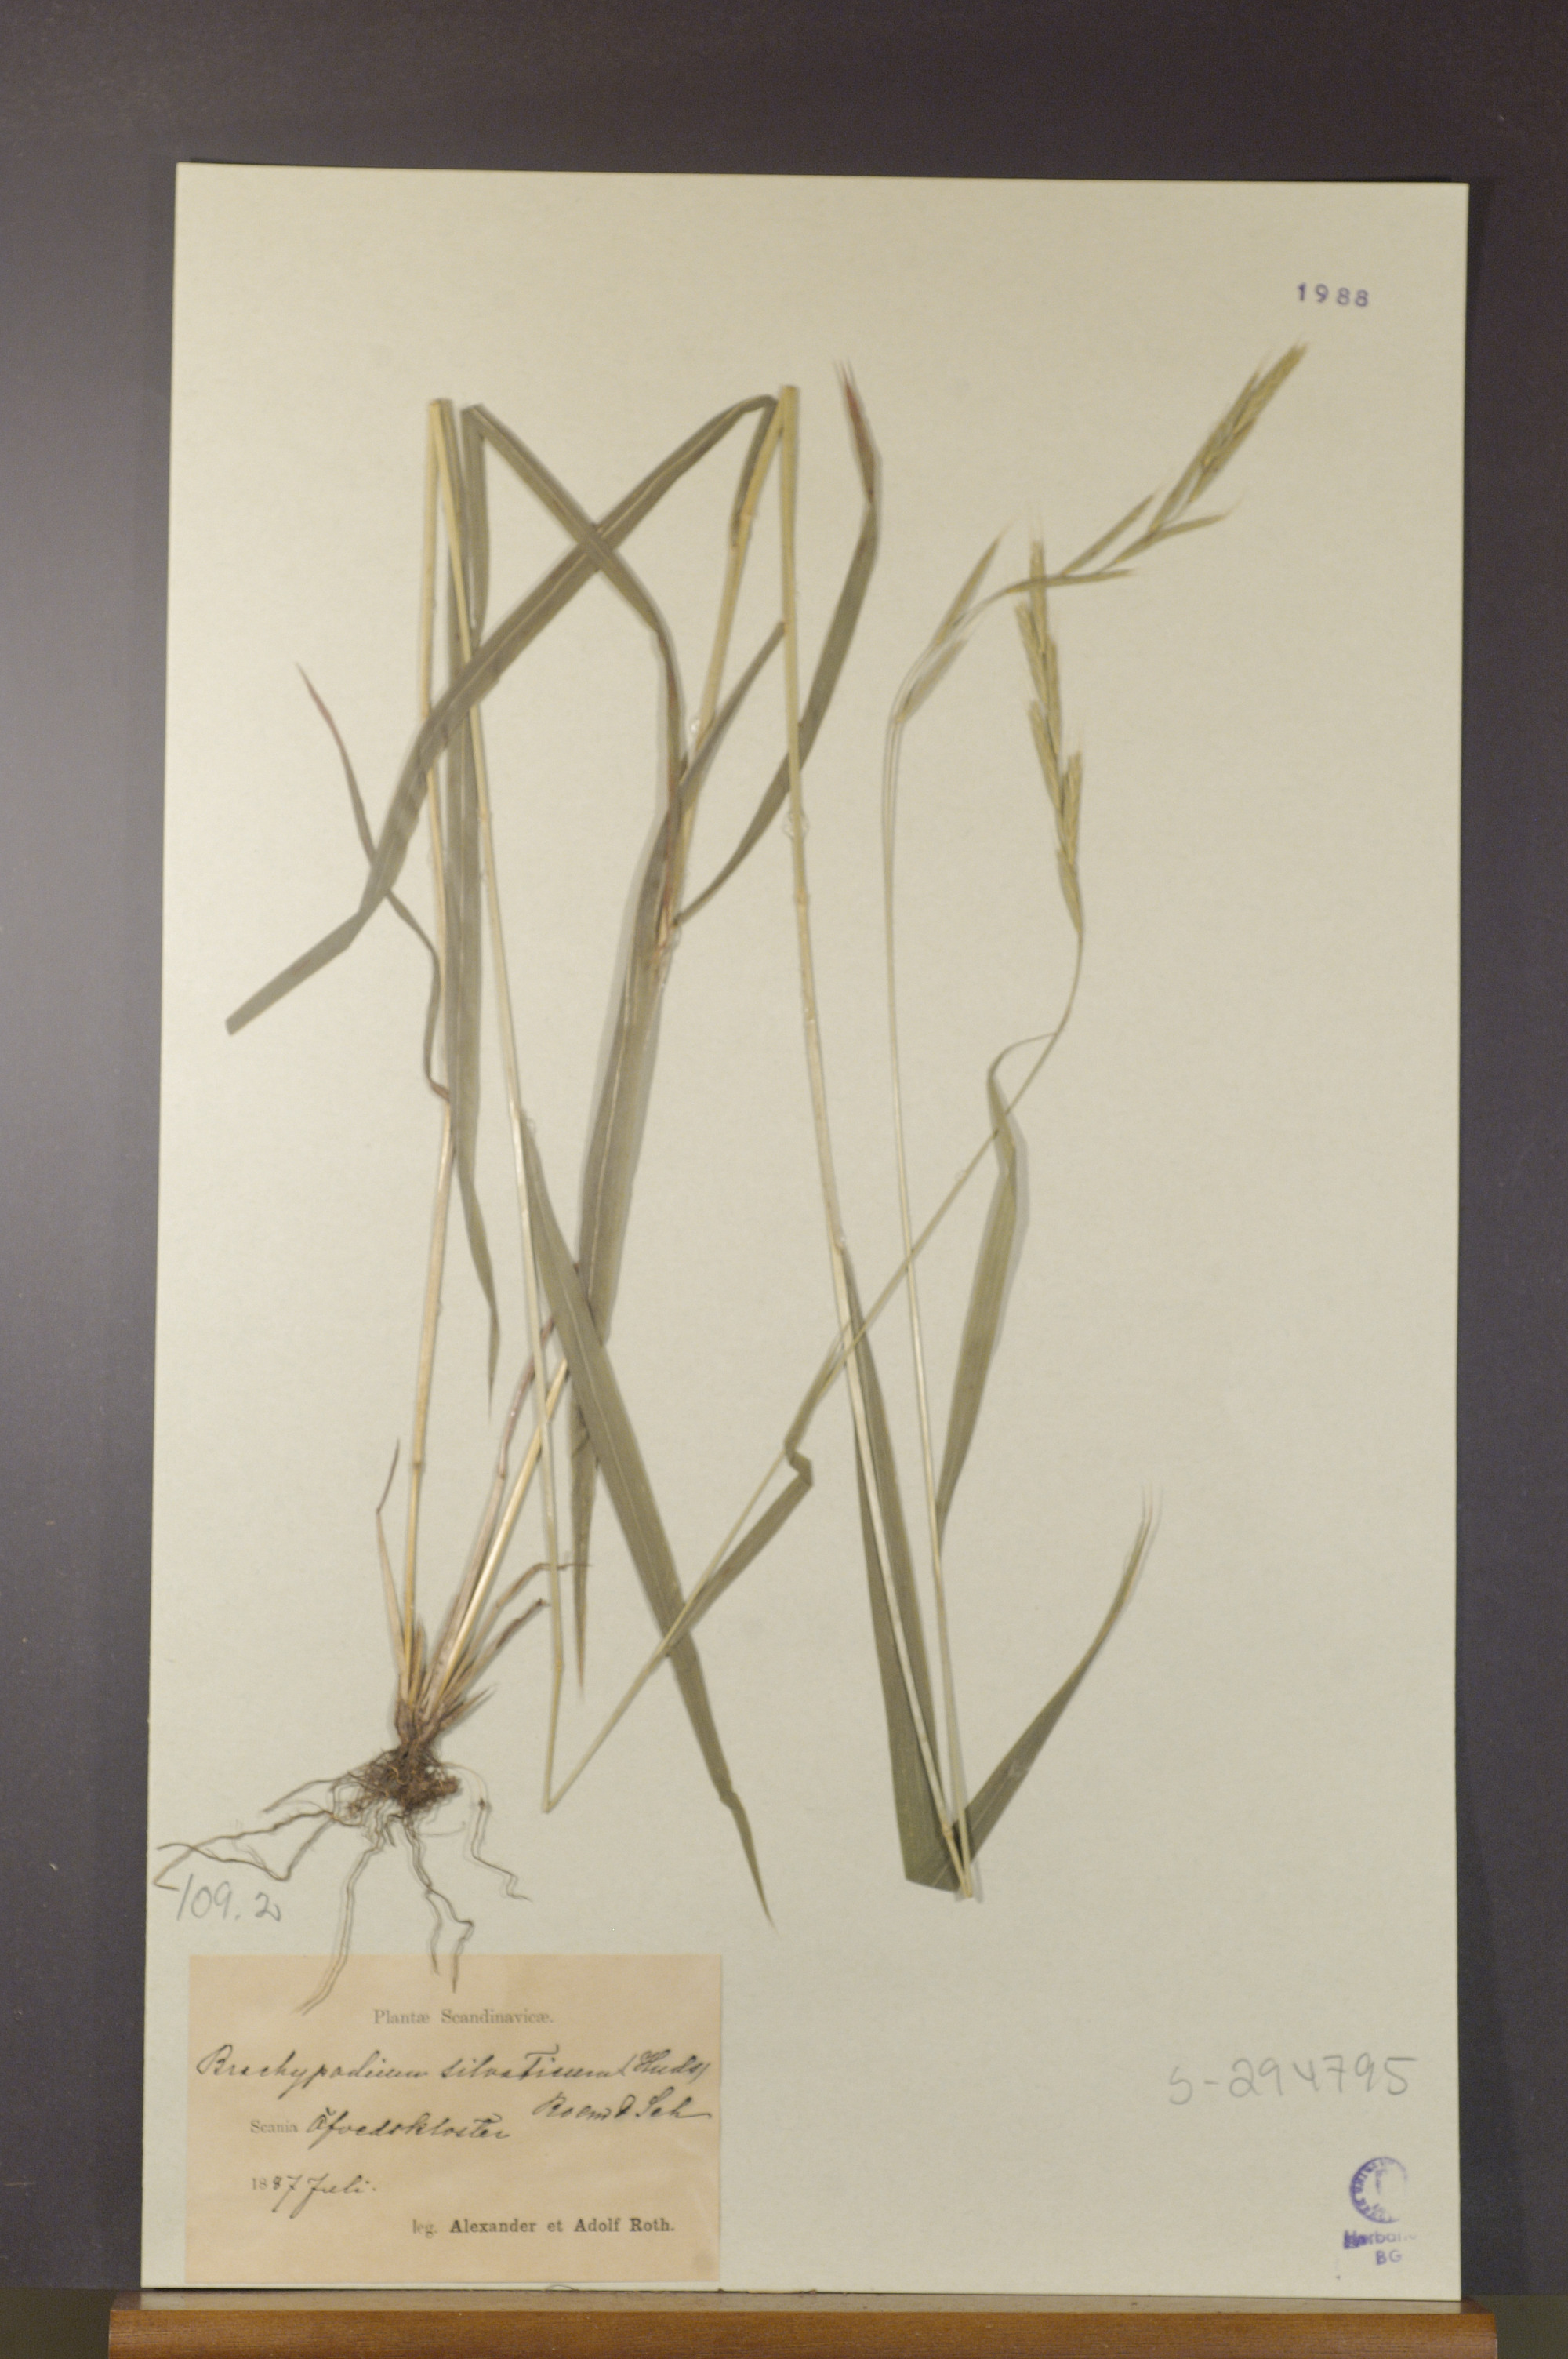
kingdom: Plantae
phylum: Tracheophyta
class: Liliopsida
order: Poales
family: Poaceae
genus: Brachypodium
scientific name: Brachypodium sylvaticum
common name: False-brome
